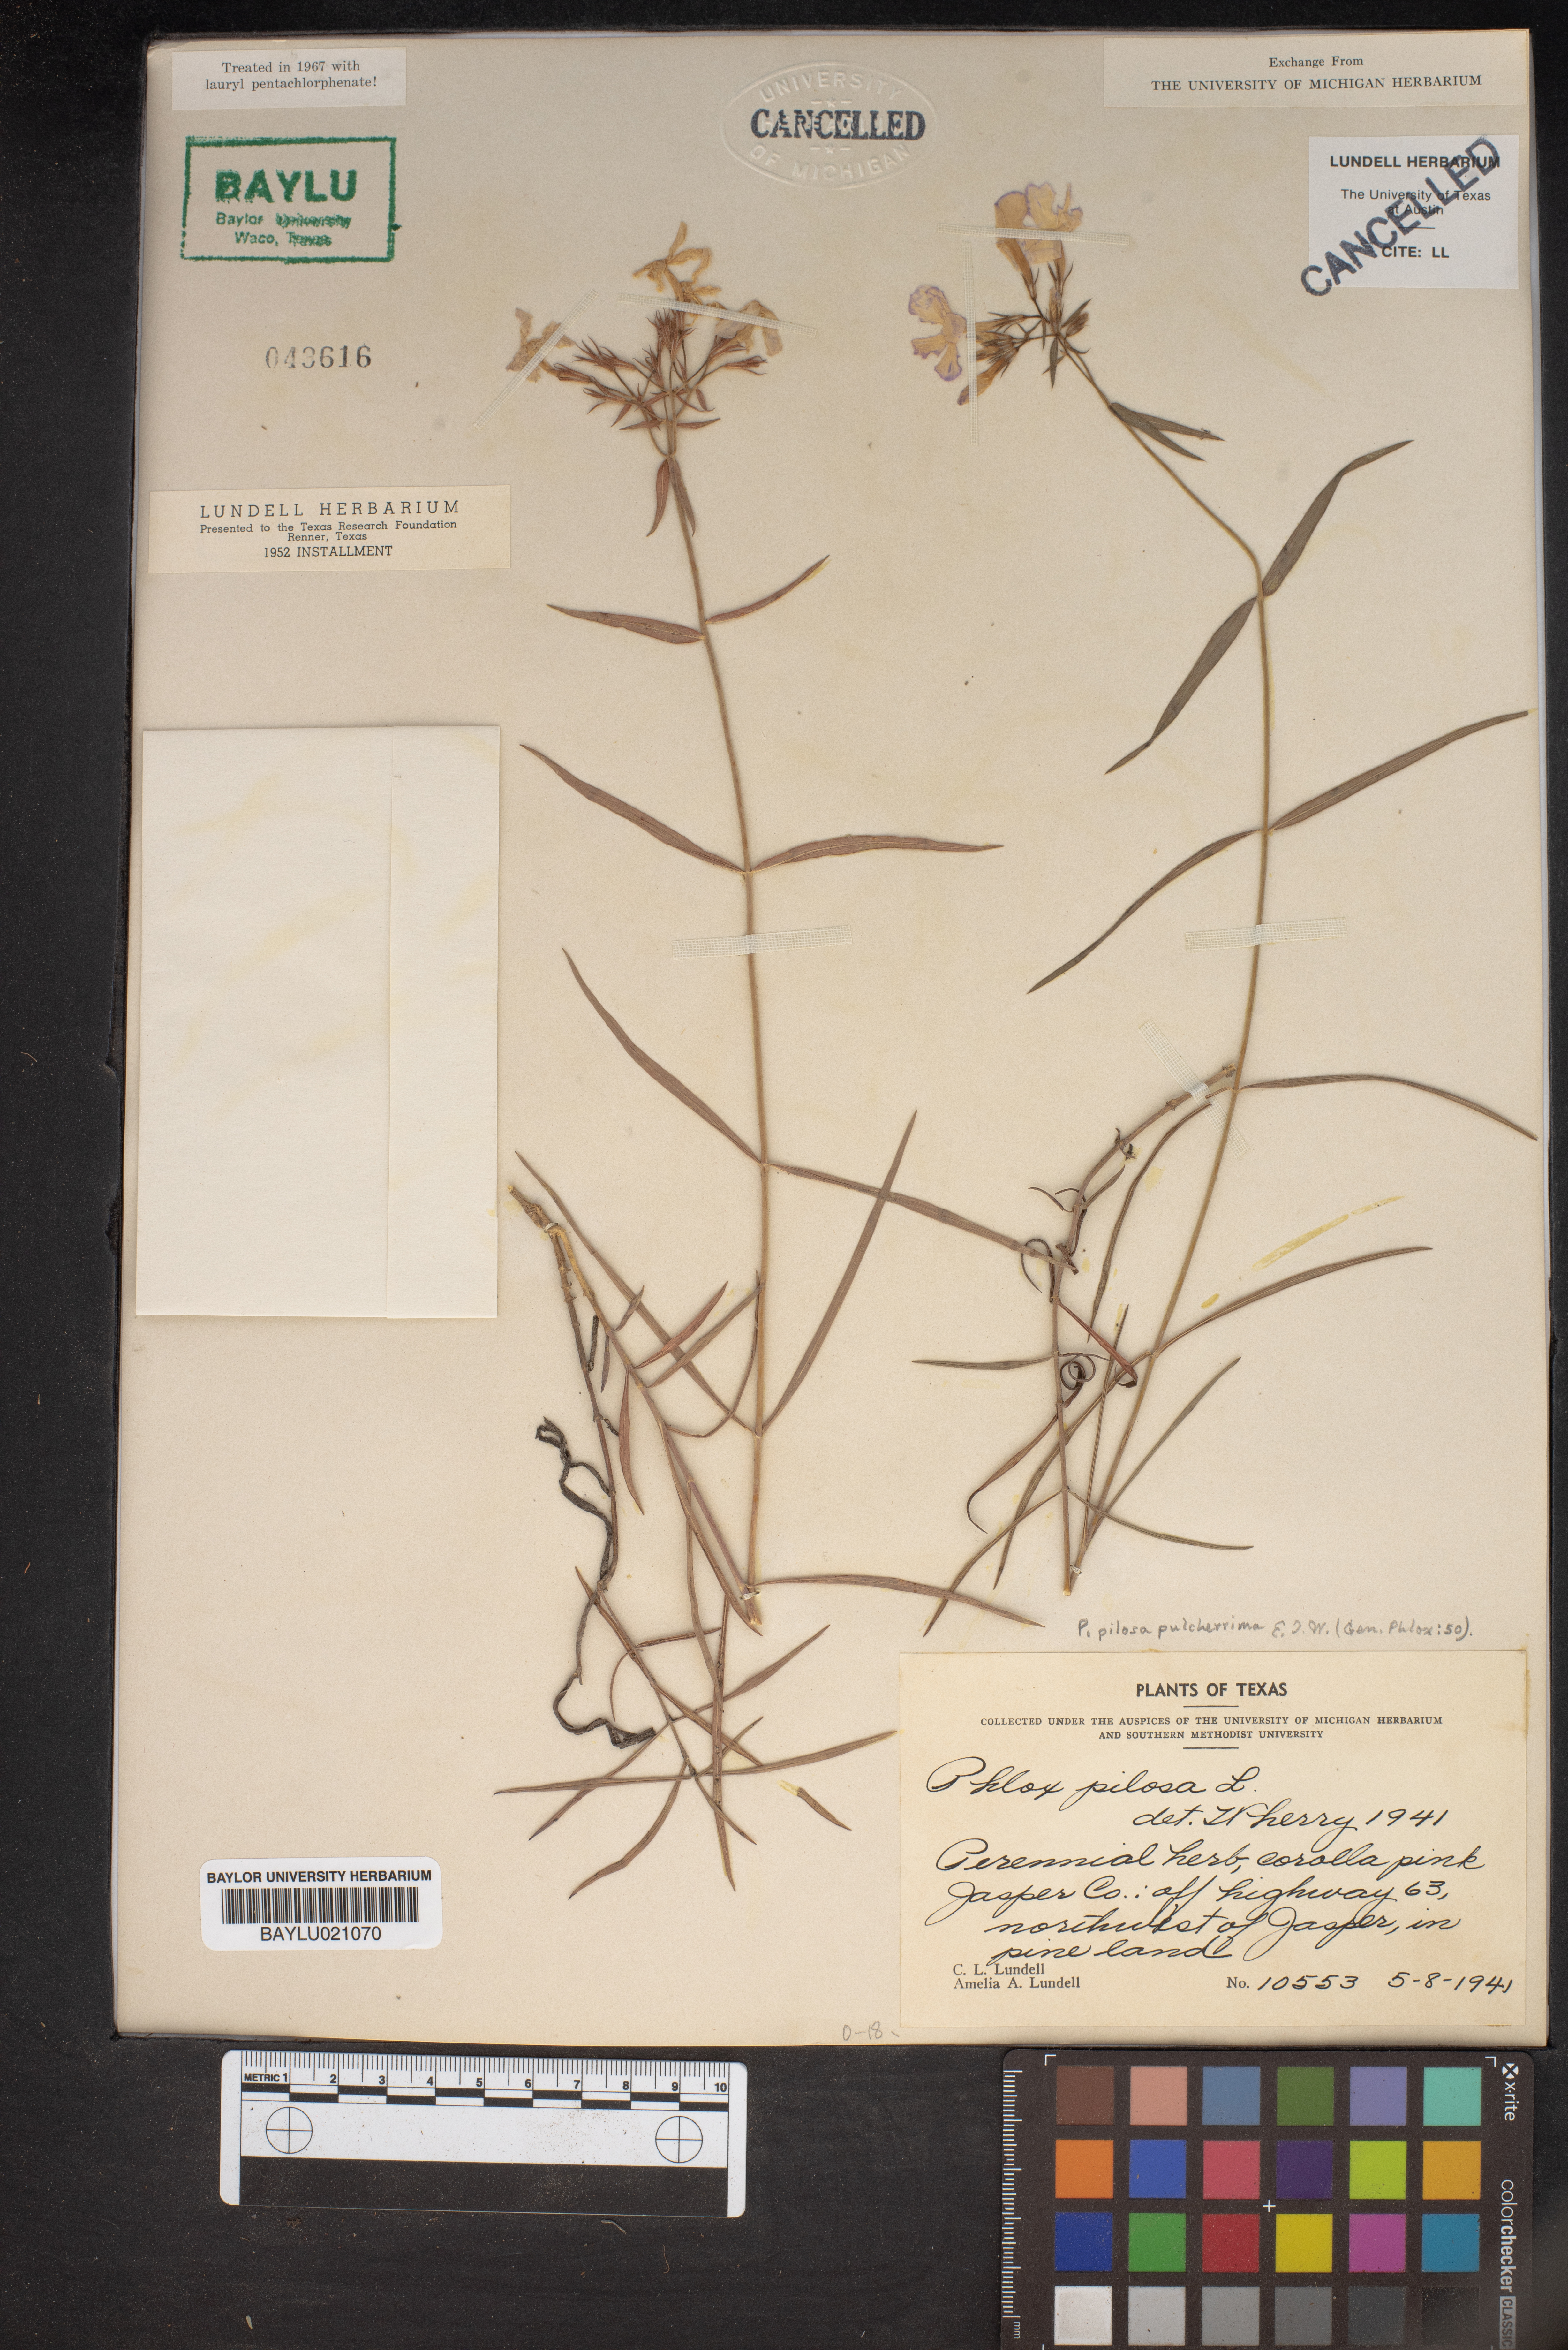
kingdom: Plantae
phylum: Tracheophyta
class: Magnoliopsida
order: Ericales
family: Polemoniaceae
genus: Phlox
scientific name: Phlox pilosa
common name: Prairie phlox
